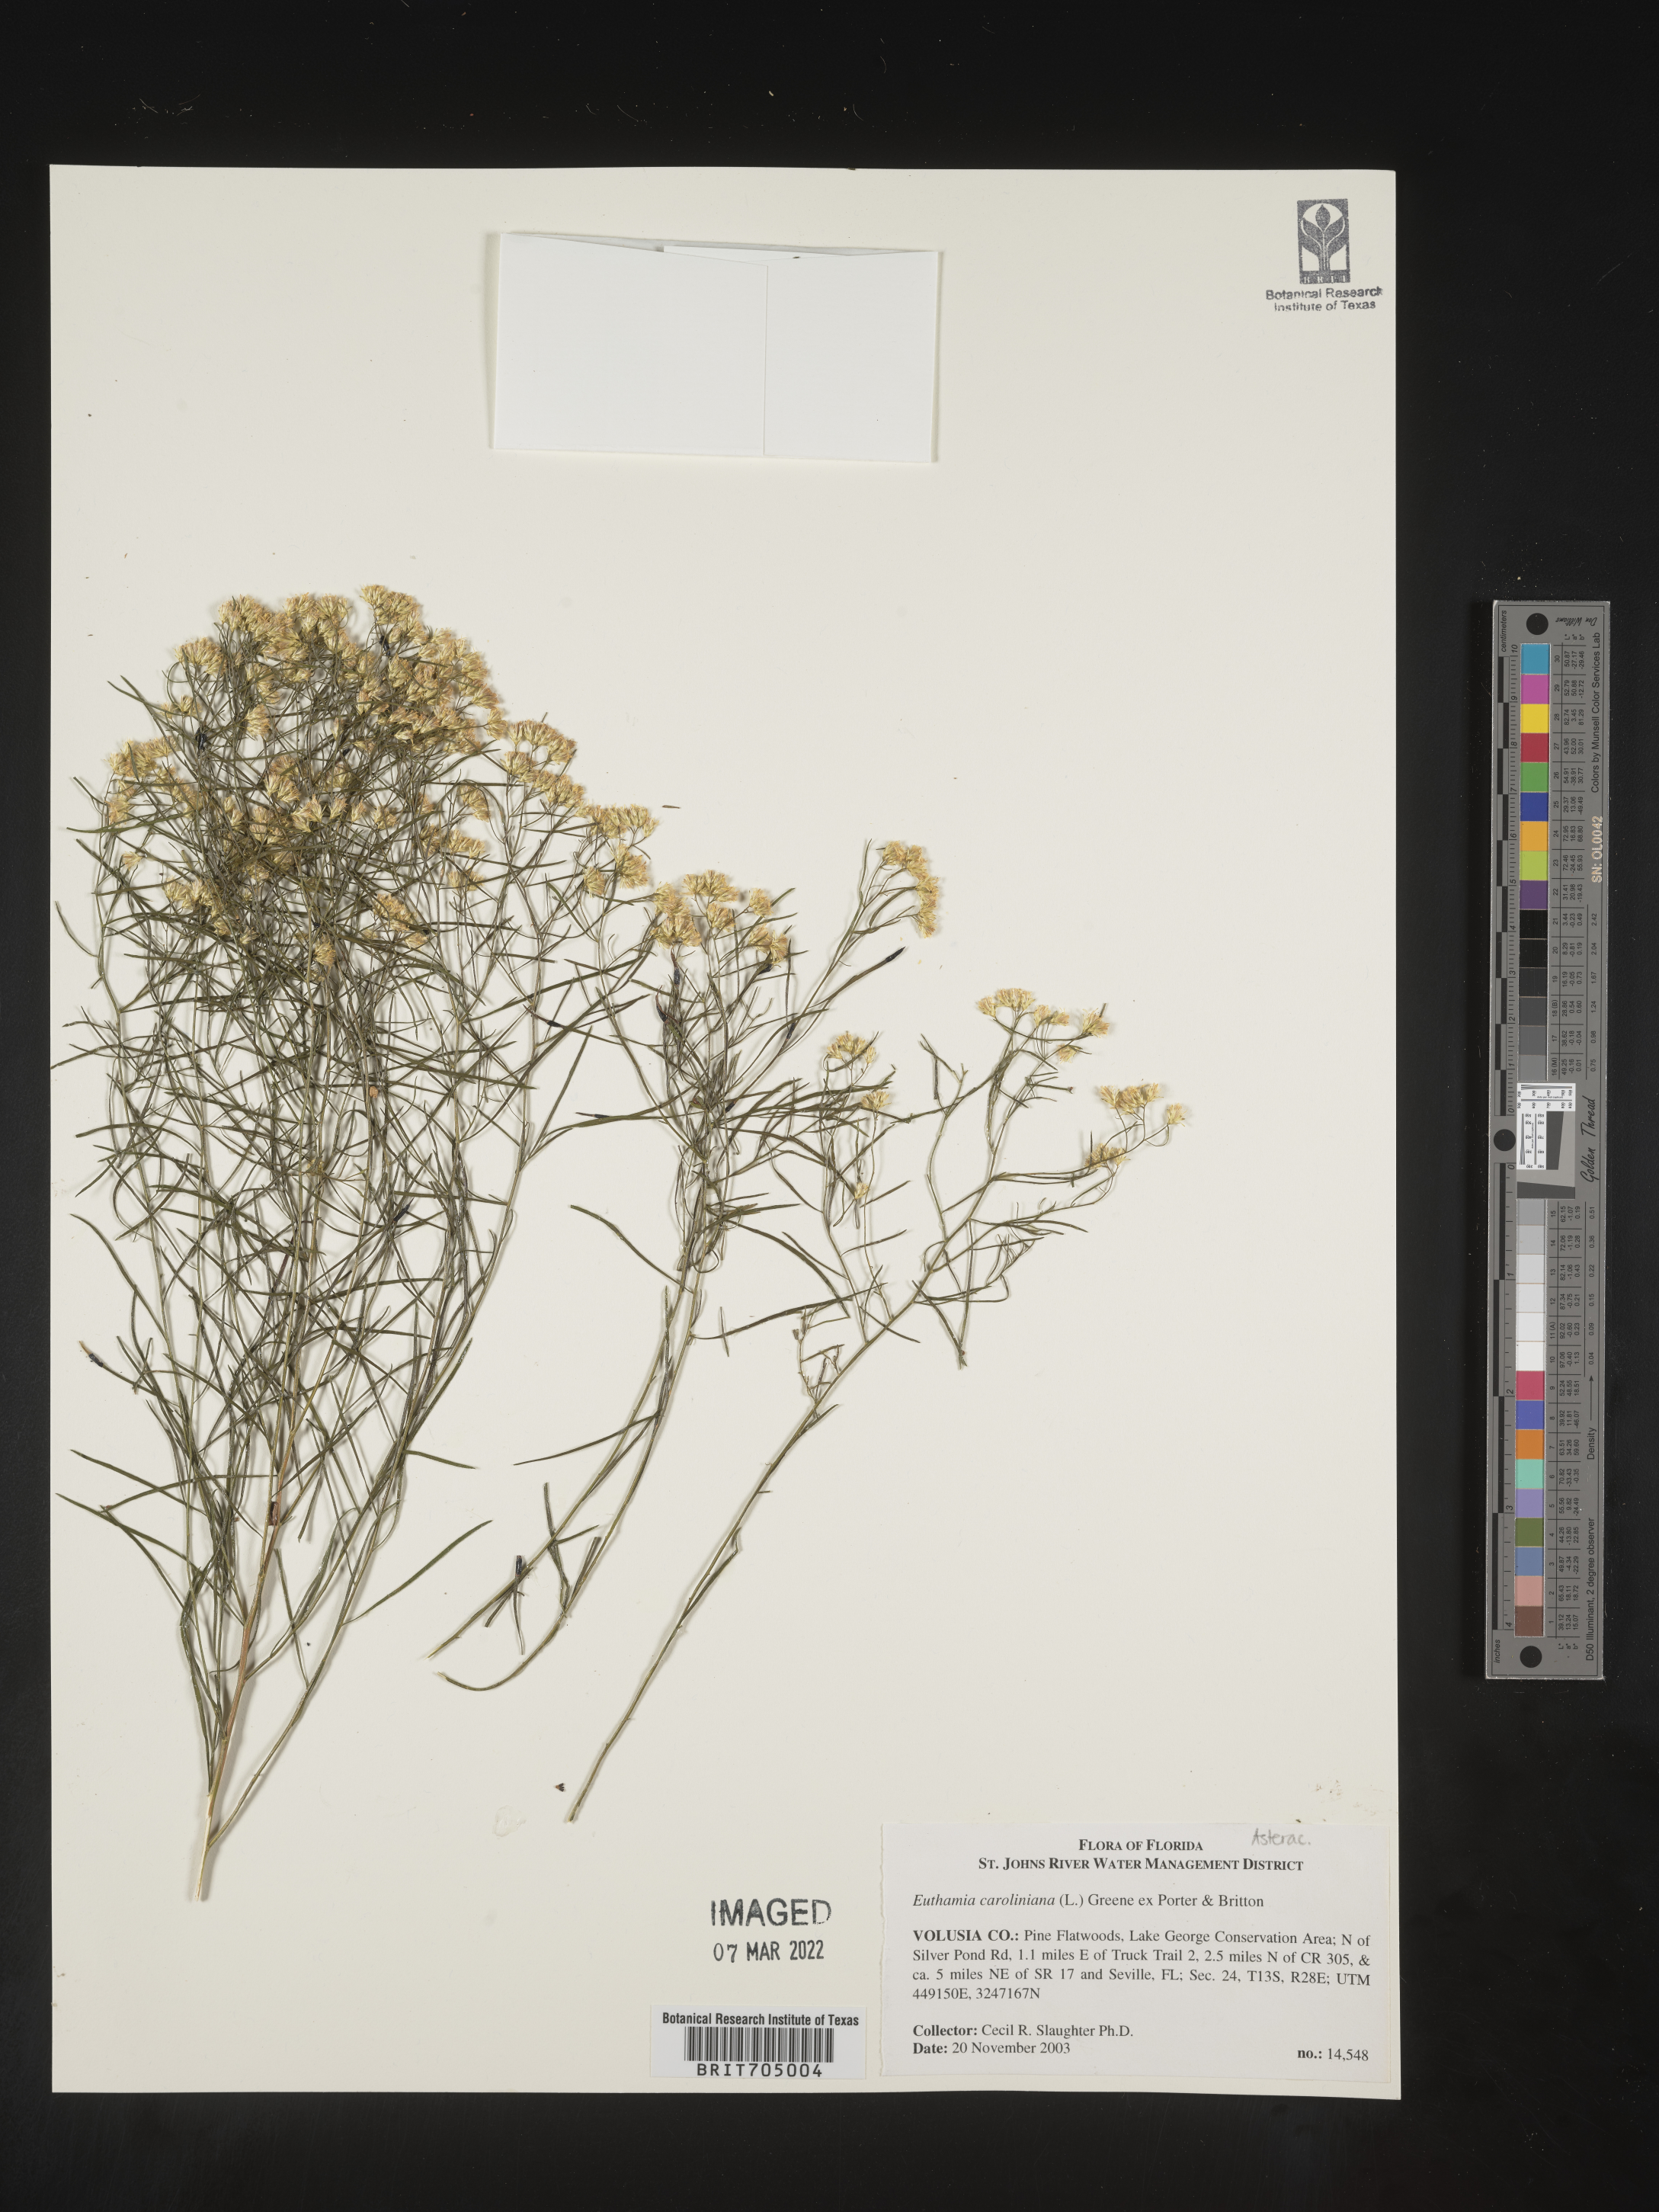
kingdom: Plantae
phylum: Tracheophyta
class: Magnoliopsida
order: Asterales
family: Asteraceae
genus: Euthamia
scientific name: Euthamia caroliniana
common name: Coastal plain goldentop
